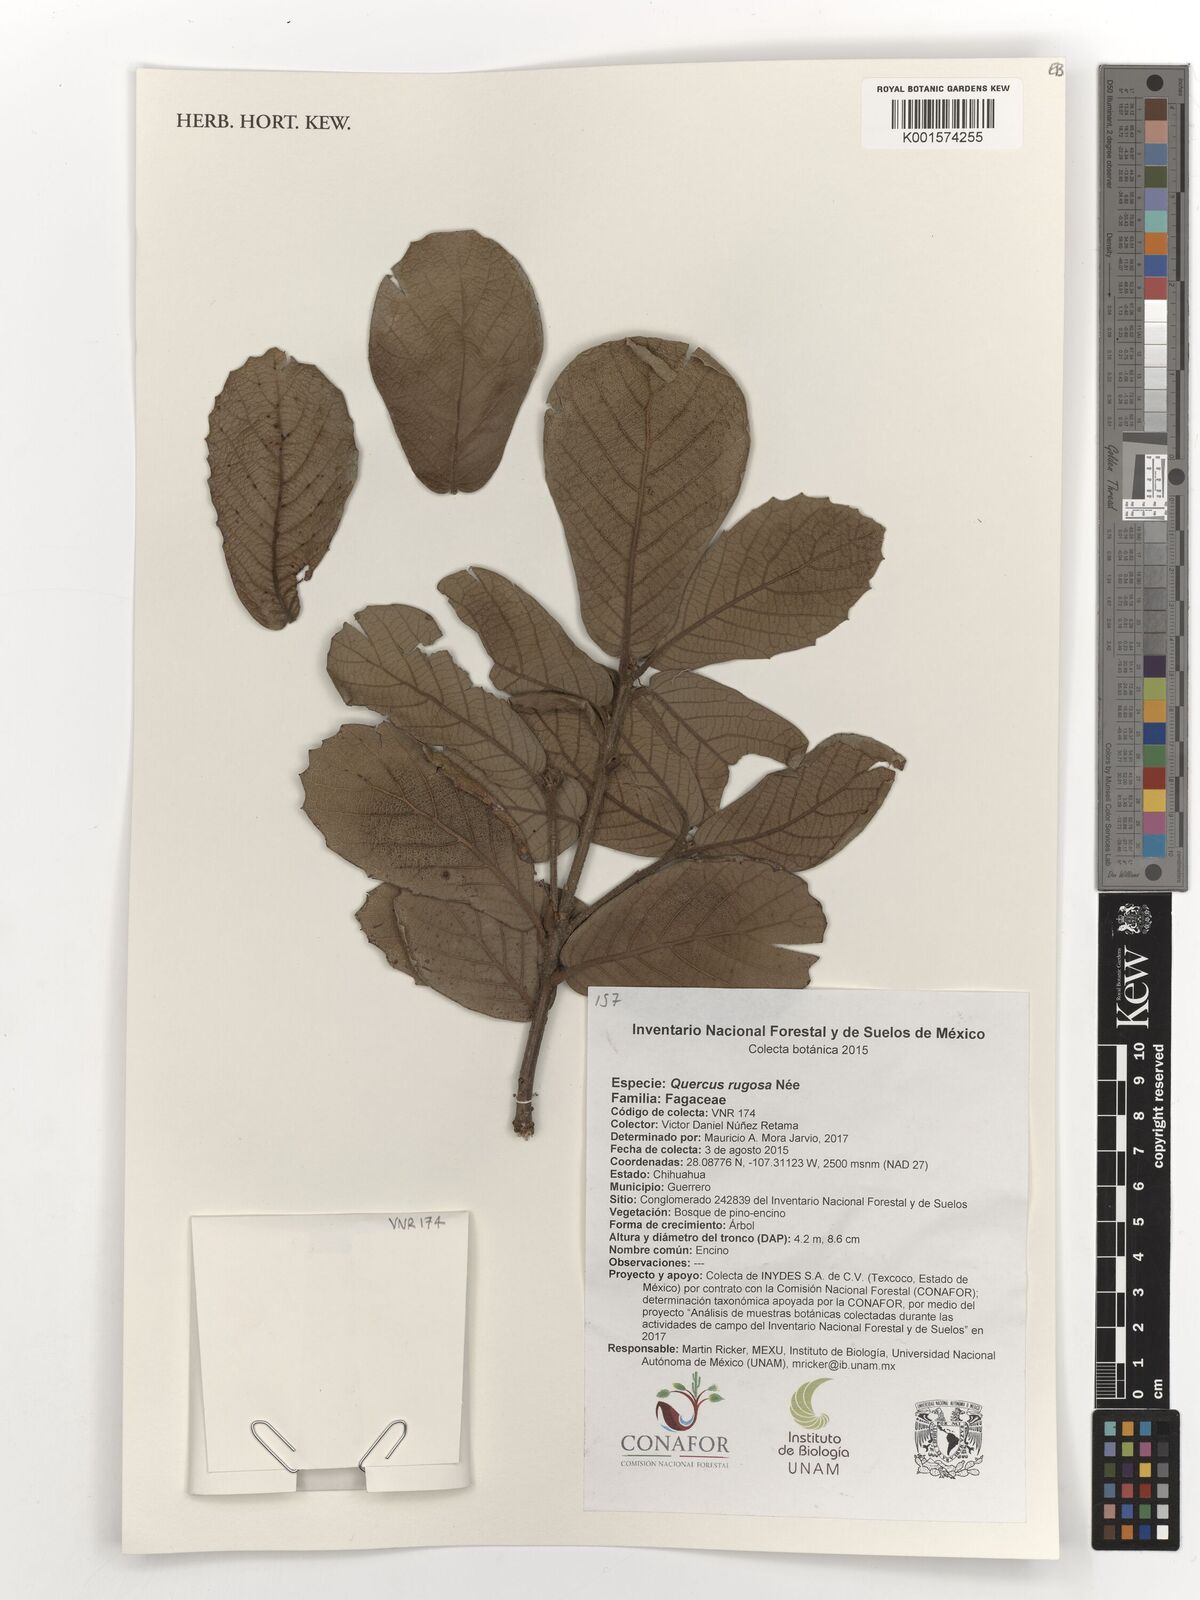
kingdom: Plantae
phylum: Tracheophyta
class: Magnoliopsida
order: Fagales
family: Fagaceae
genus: Quercus
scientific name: Quercus rugosa
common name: Netleaf oak
